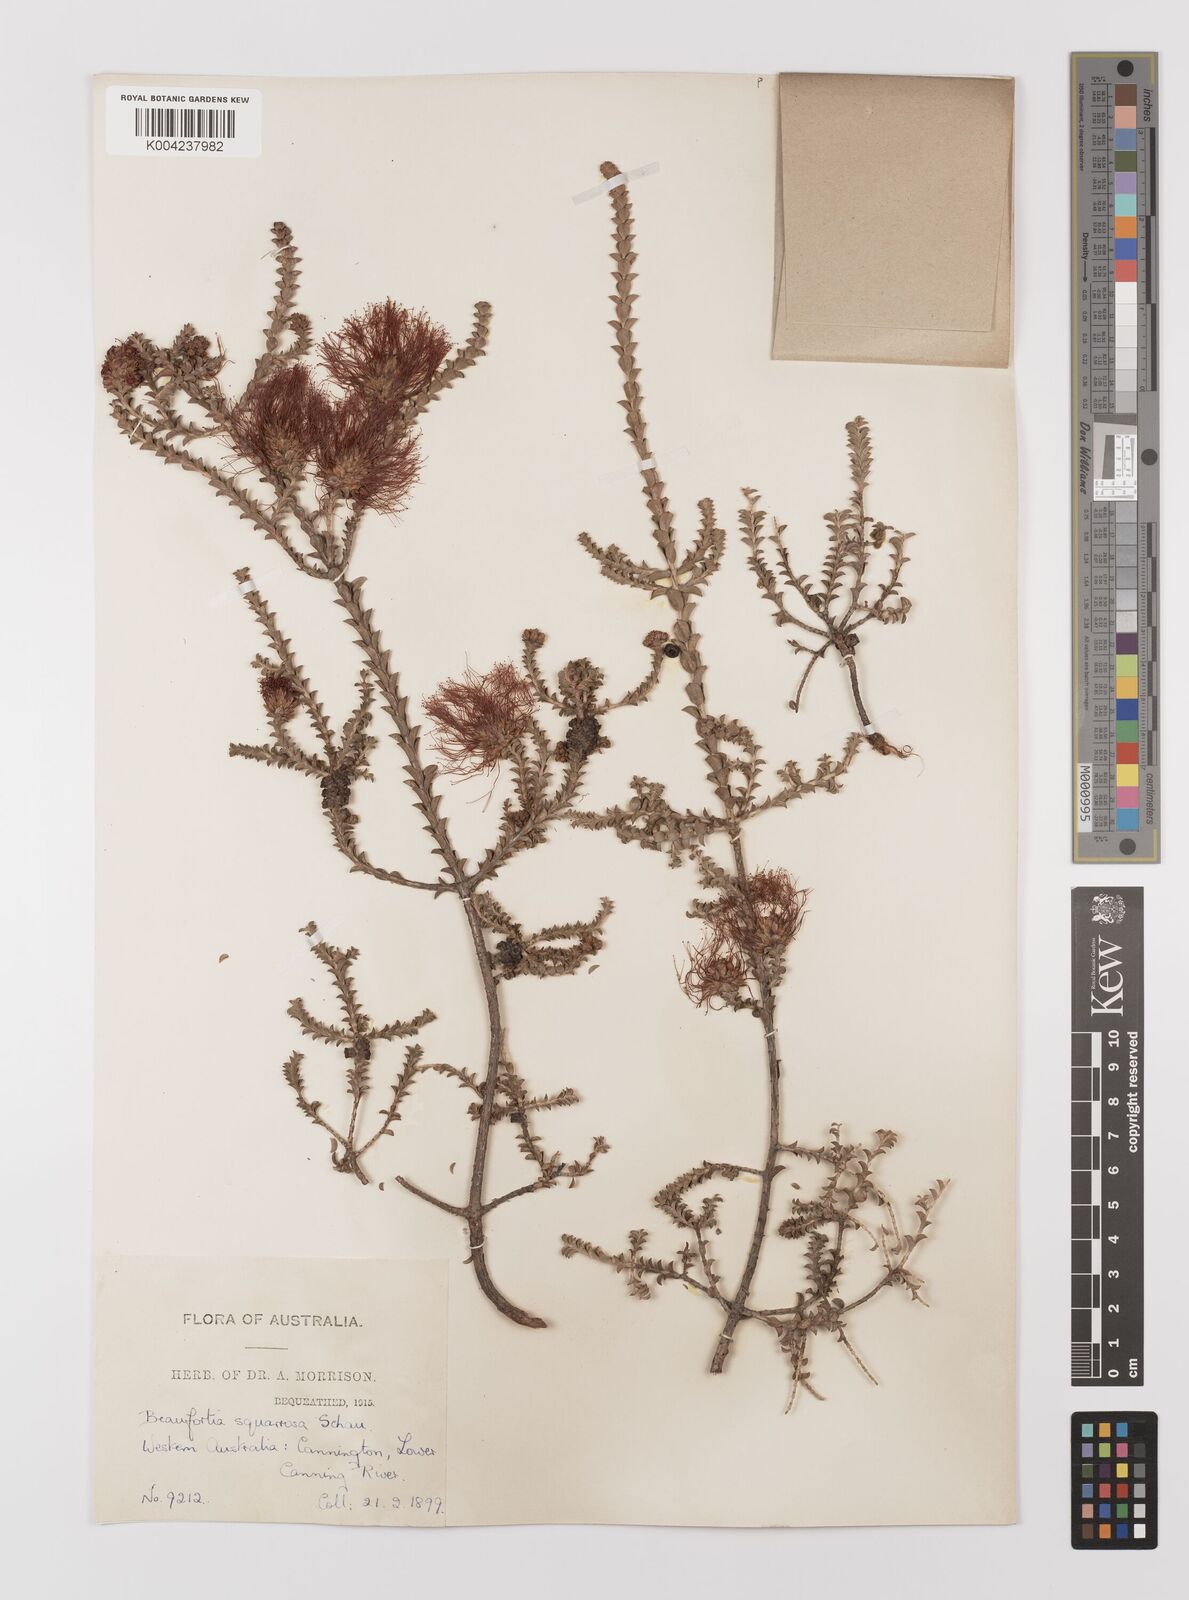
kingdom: Plantae
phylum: Tracheophyta
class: Magnoliopsida
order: Myrtales
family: Myrtaceae
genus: Melaleuca
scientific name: Melaleuca pulcherrima
